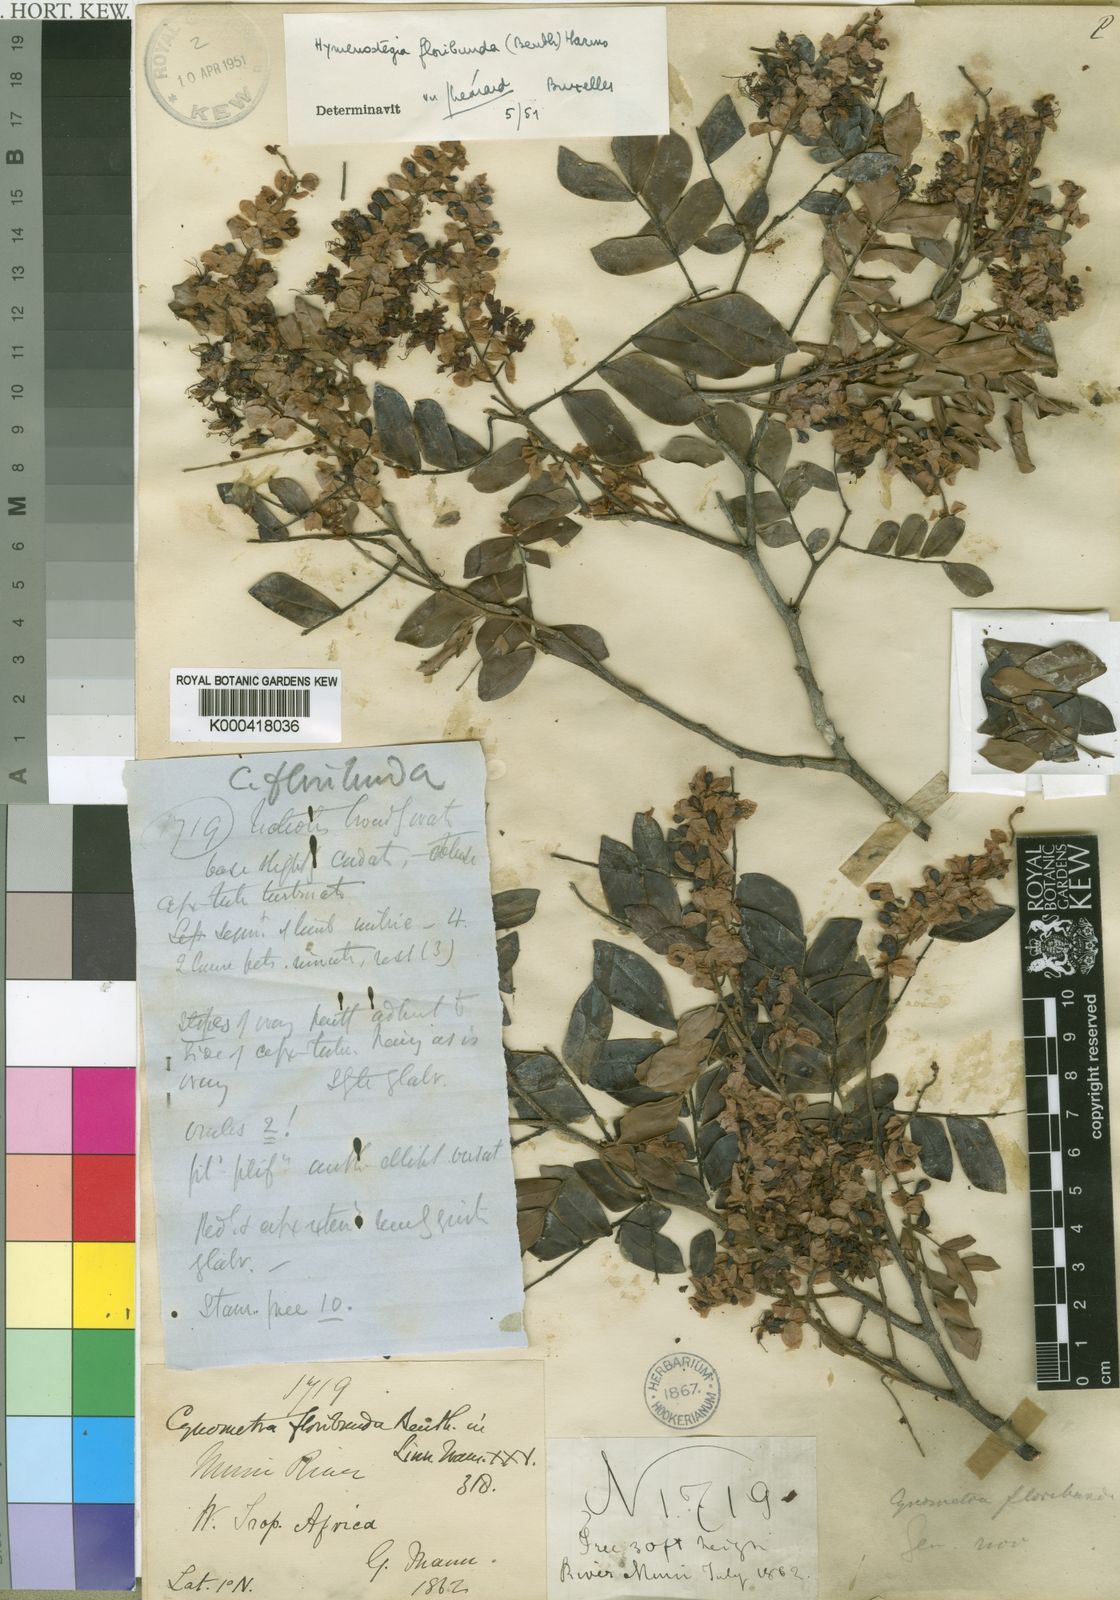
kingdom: Plantae
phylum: Tracheophyta
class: Magnoliopsida
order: Fabales
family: Fabaceae
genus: Hymenostegia
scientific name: Hymenostegia floribunda
